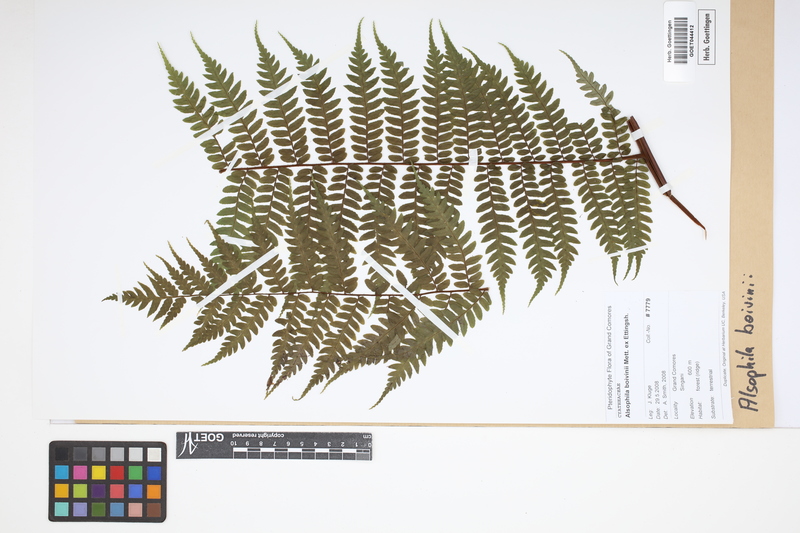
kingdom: Plantae
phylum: Tracheophyta
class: Polypodiopsida
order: Cyatheales
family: Cyatheaceae
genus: Gymnosphaera
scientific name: Gymnosphaera boivinii
